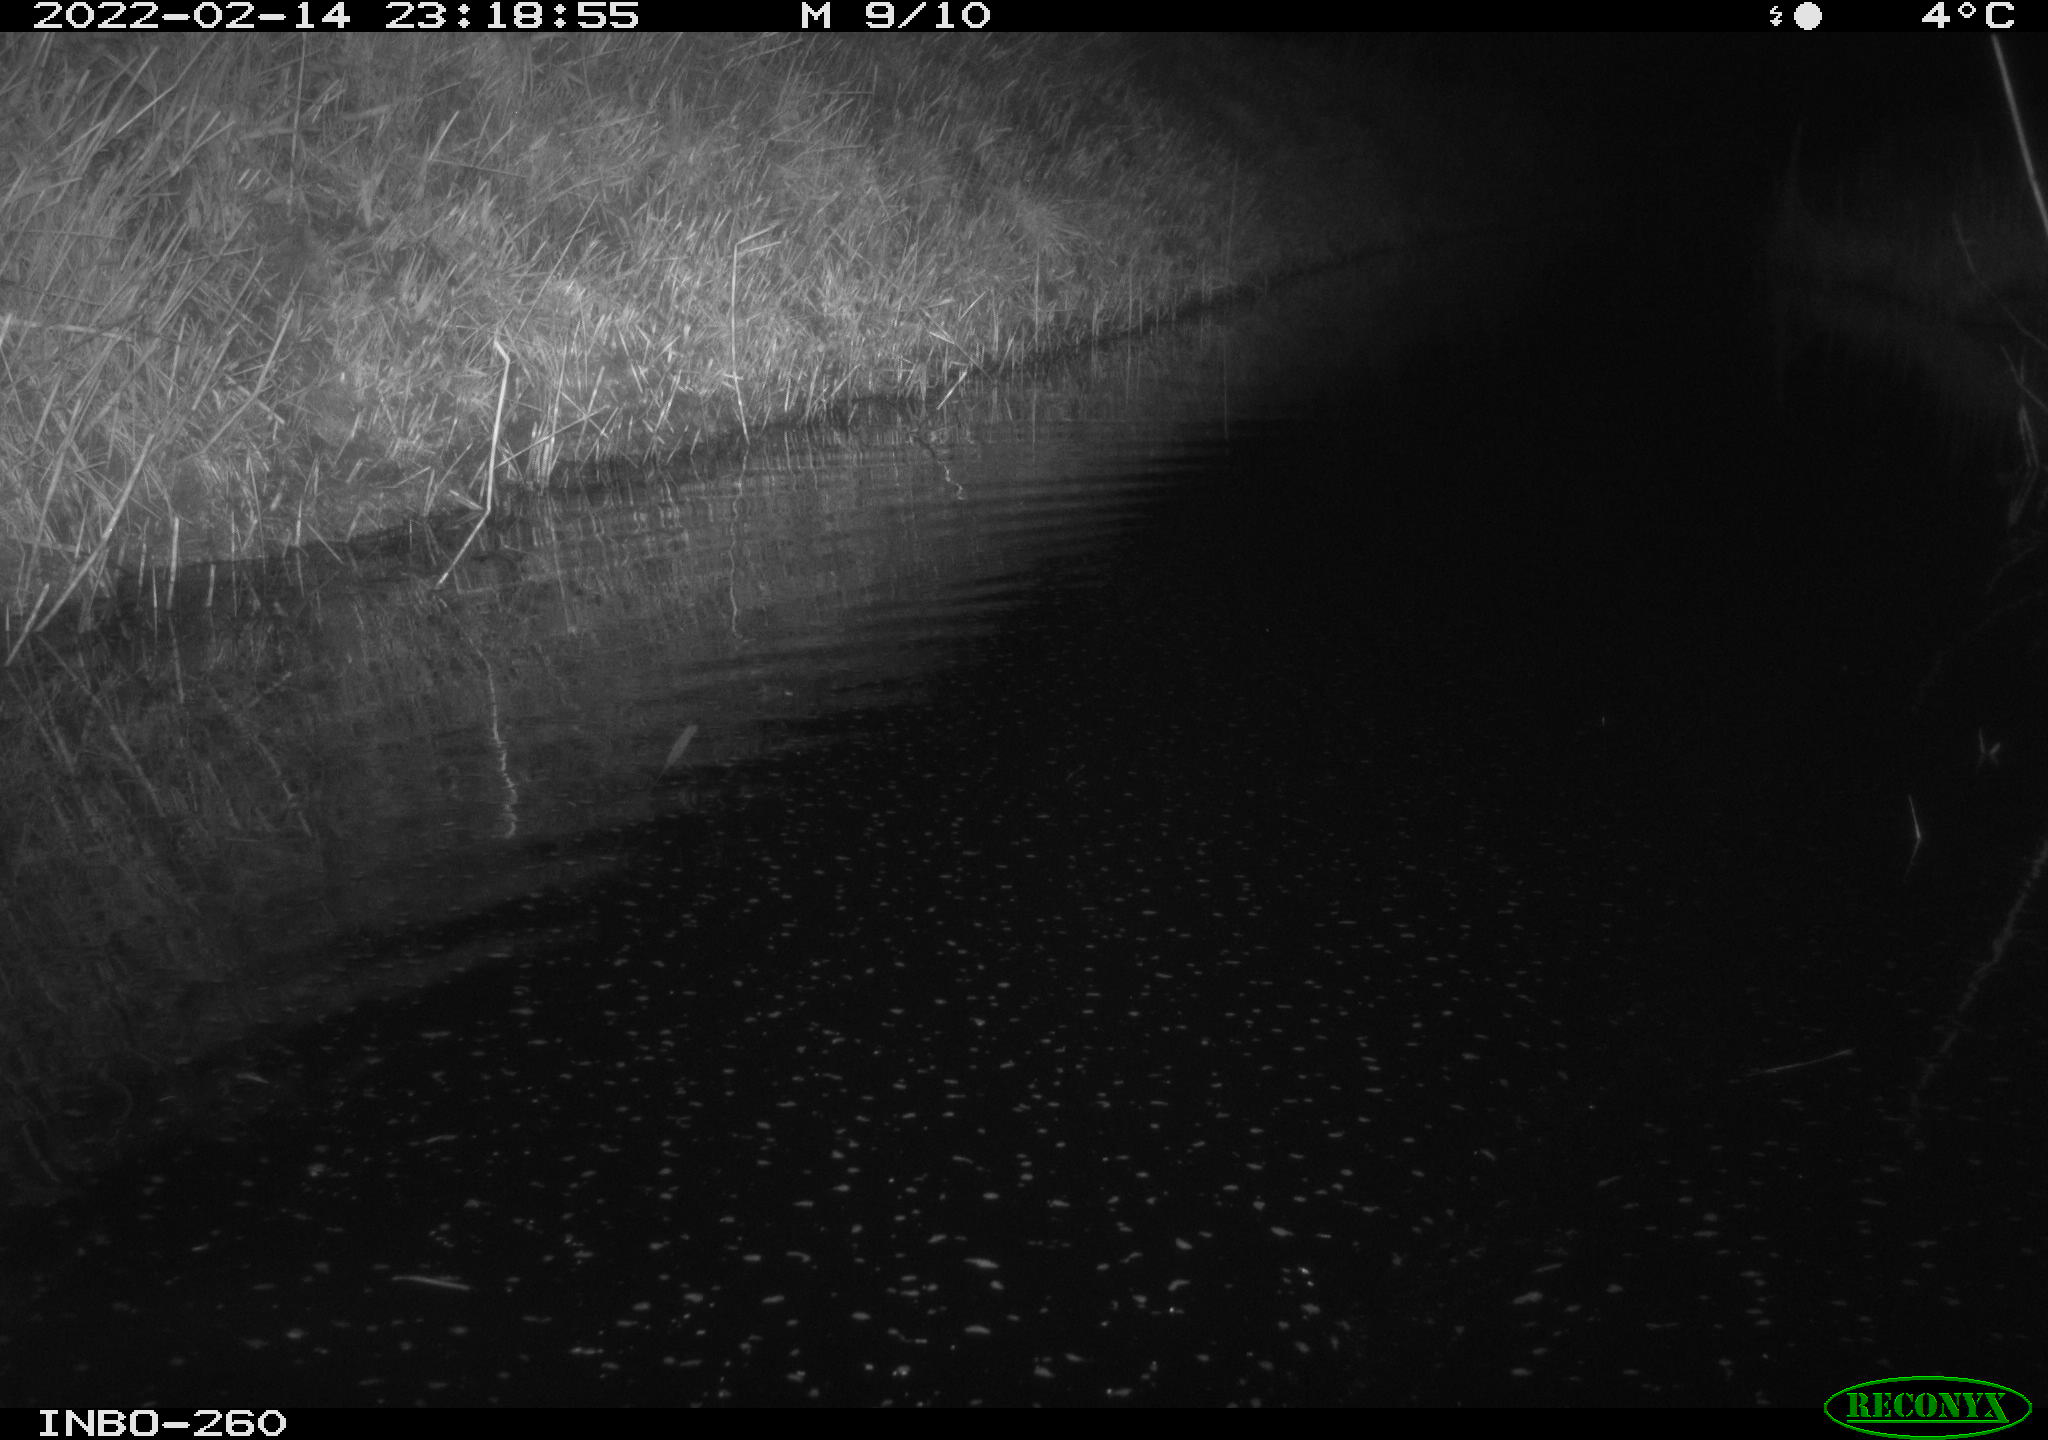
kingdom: Animalia
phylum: Chordata
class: Mammalia
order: Rodentia
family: Cricetidae
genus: Ondatra
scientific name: Ondatra zibethicus
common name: Muskrat
